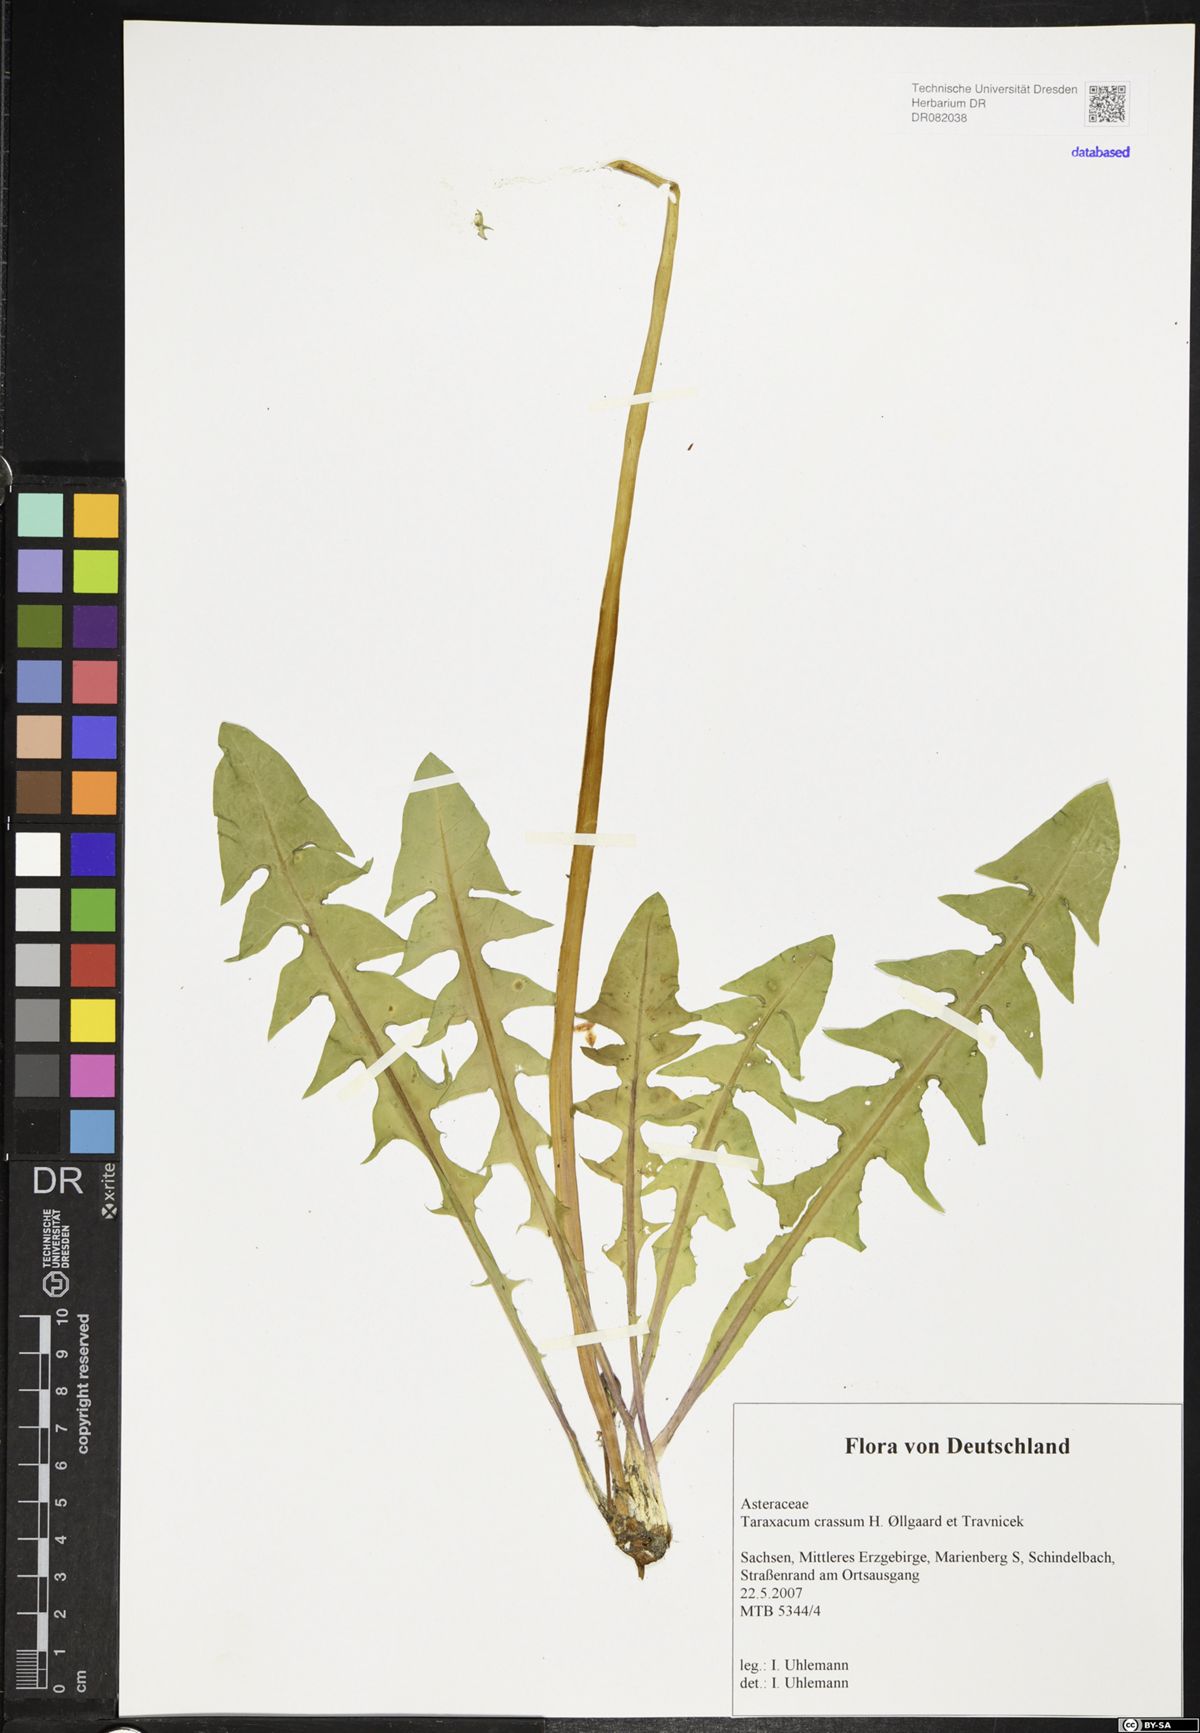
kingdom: Plantae
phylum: Tracheophyta
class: Magnoliopsida
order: Asterales
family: Asteraceae
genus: Taraxacum
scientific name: Taraxacum crassum
